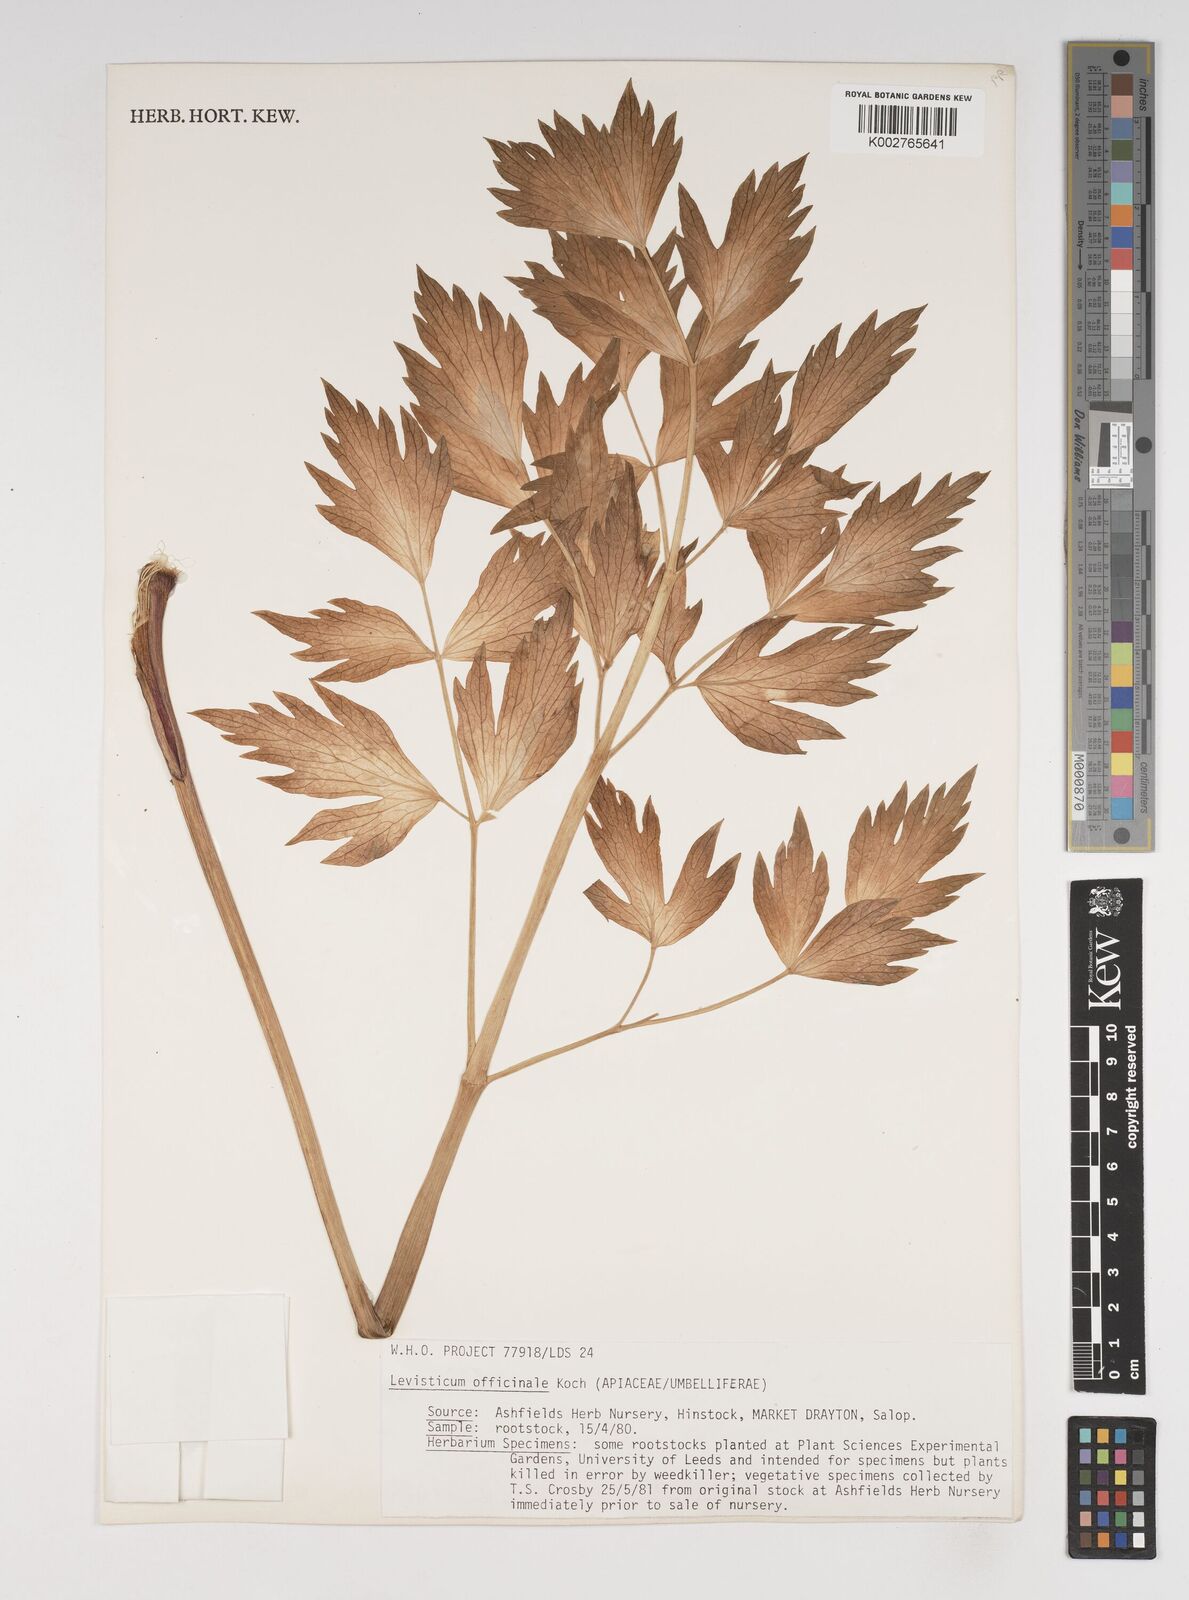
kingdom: Plantae
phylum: Tracheophyta
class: Magnoliopsida
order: Apiales
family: Apiaceae
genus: Levisticum
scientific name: Levisticum officinale
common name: Lovage
